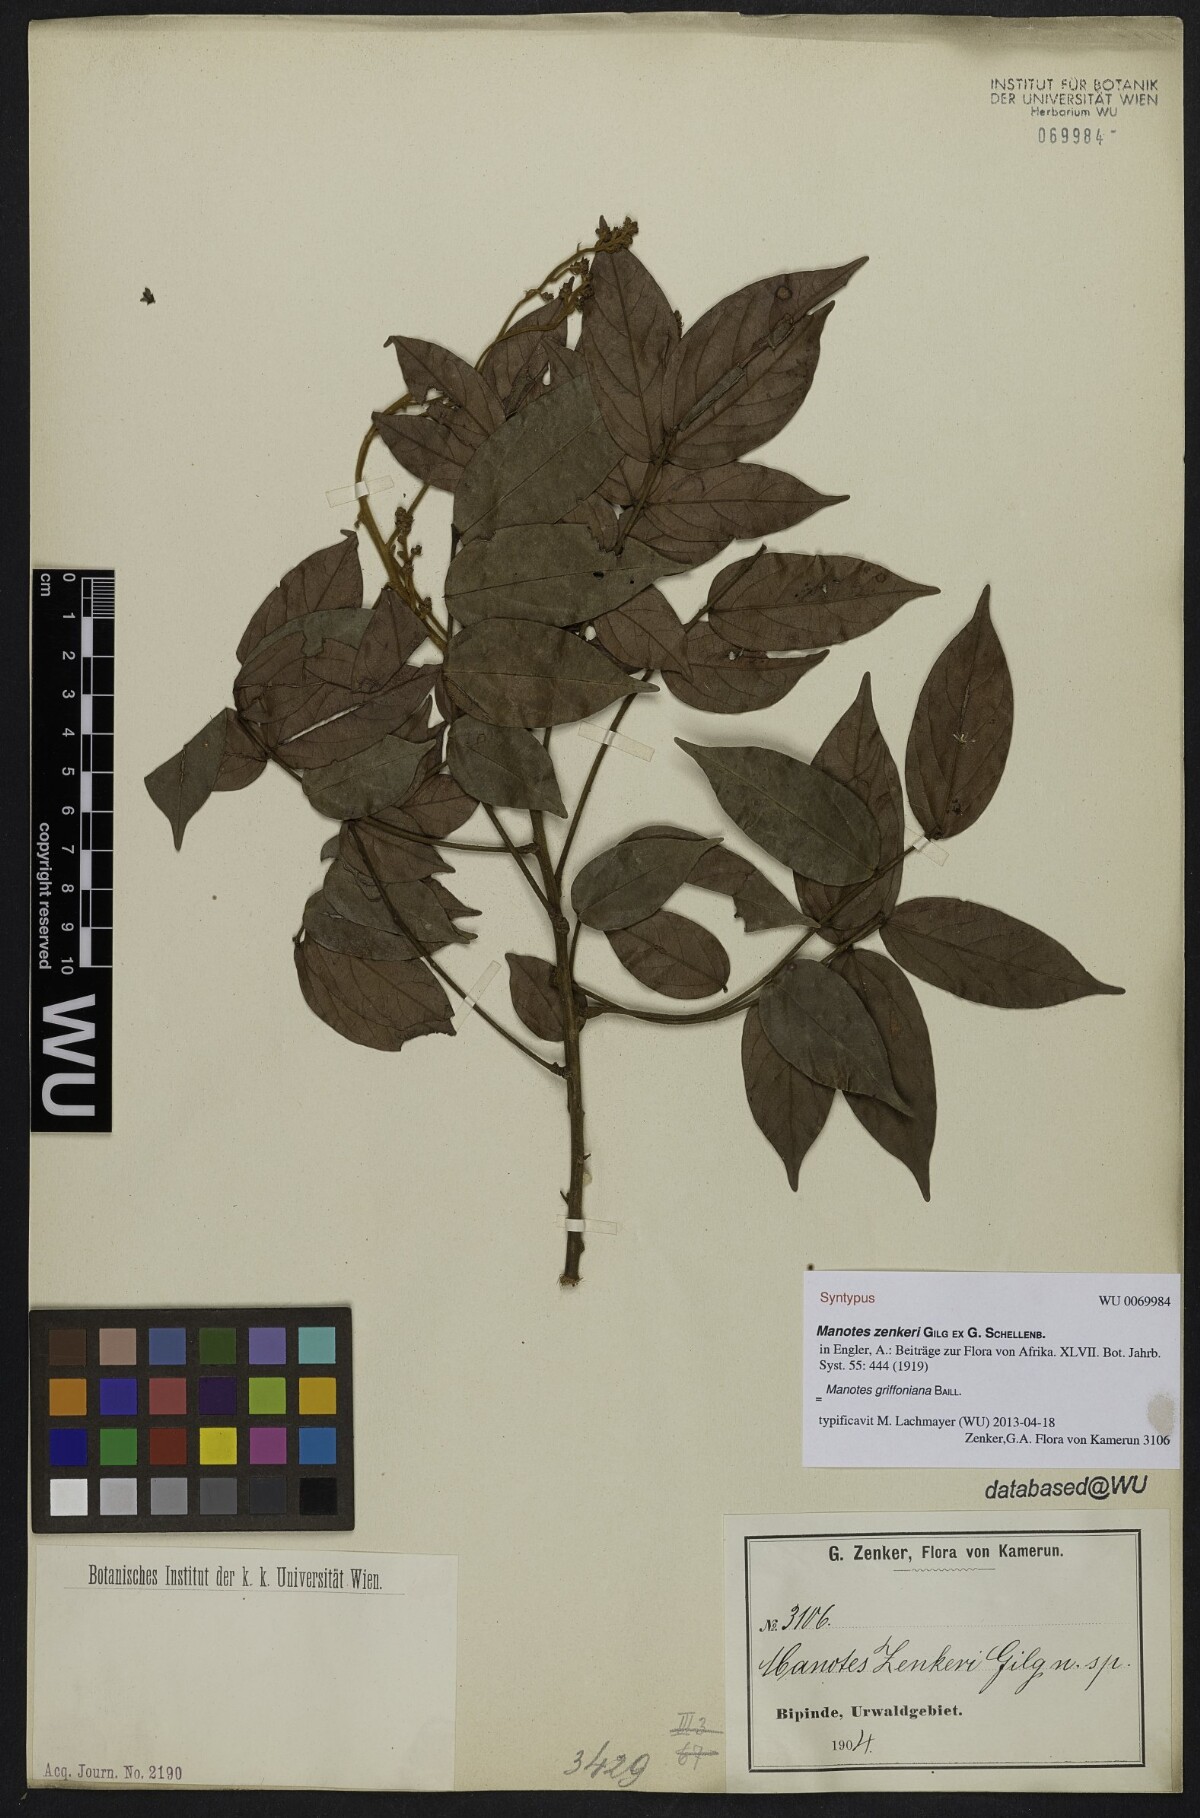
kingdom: Plantae
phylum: Tracheophyta
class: Magnoliopsida
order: Oxalidales
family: Connaraceae
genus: Manotes
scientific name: Manotes griffoniana
